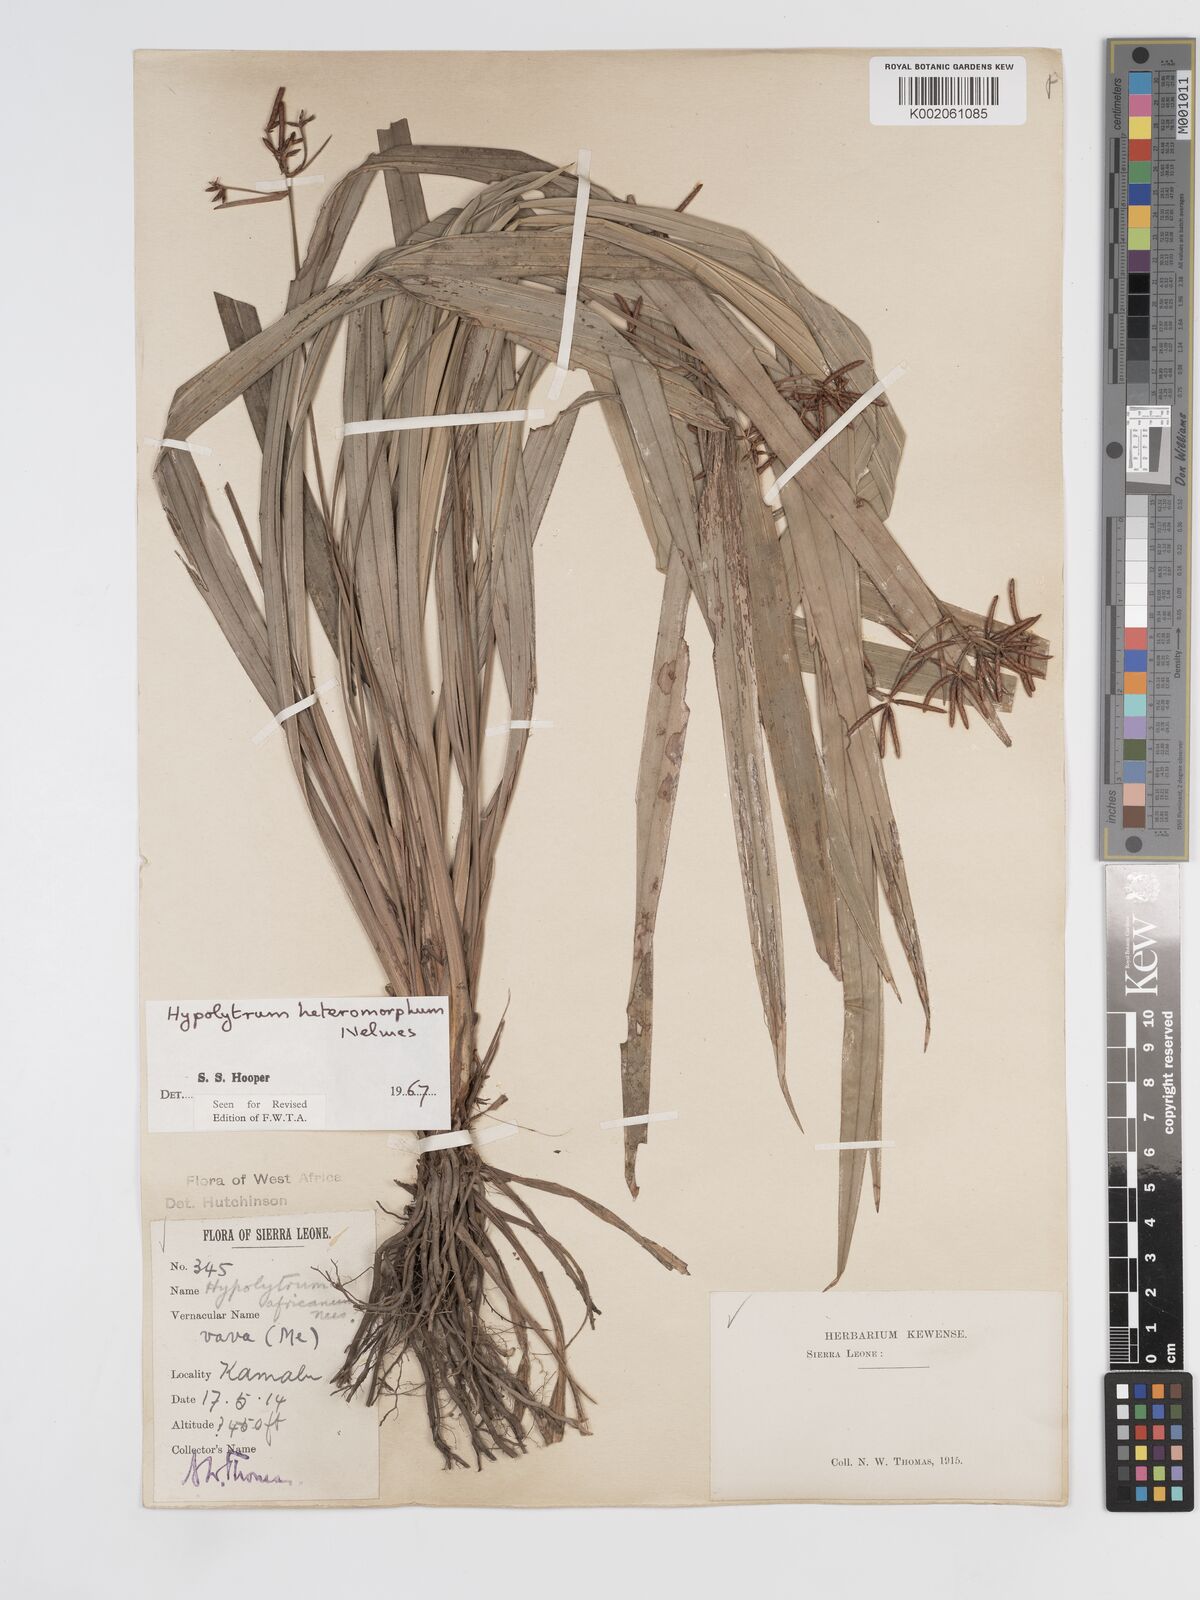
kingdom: Plantae
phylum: Tracheophyta
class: Liliopsida
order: Poales
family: Cyperaceae
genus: Hypolytrum
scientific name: Hypolytrum heteromorphum
